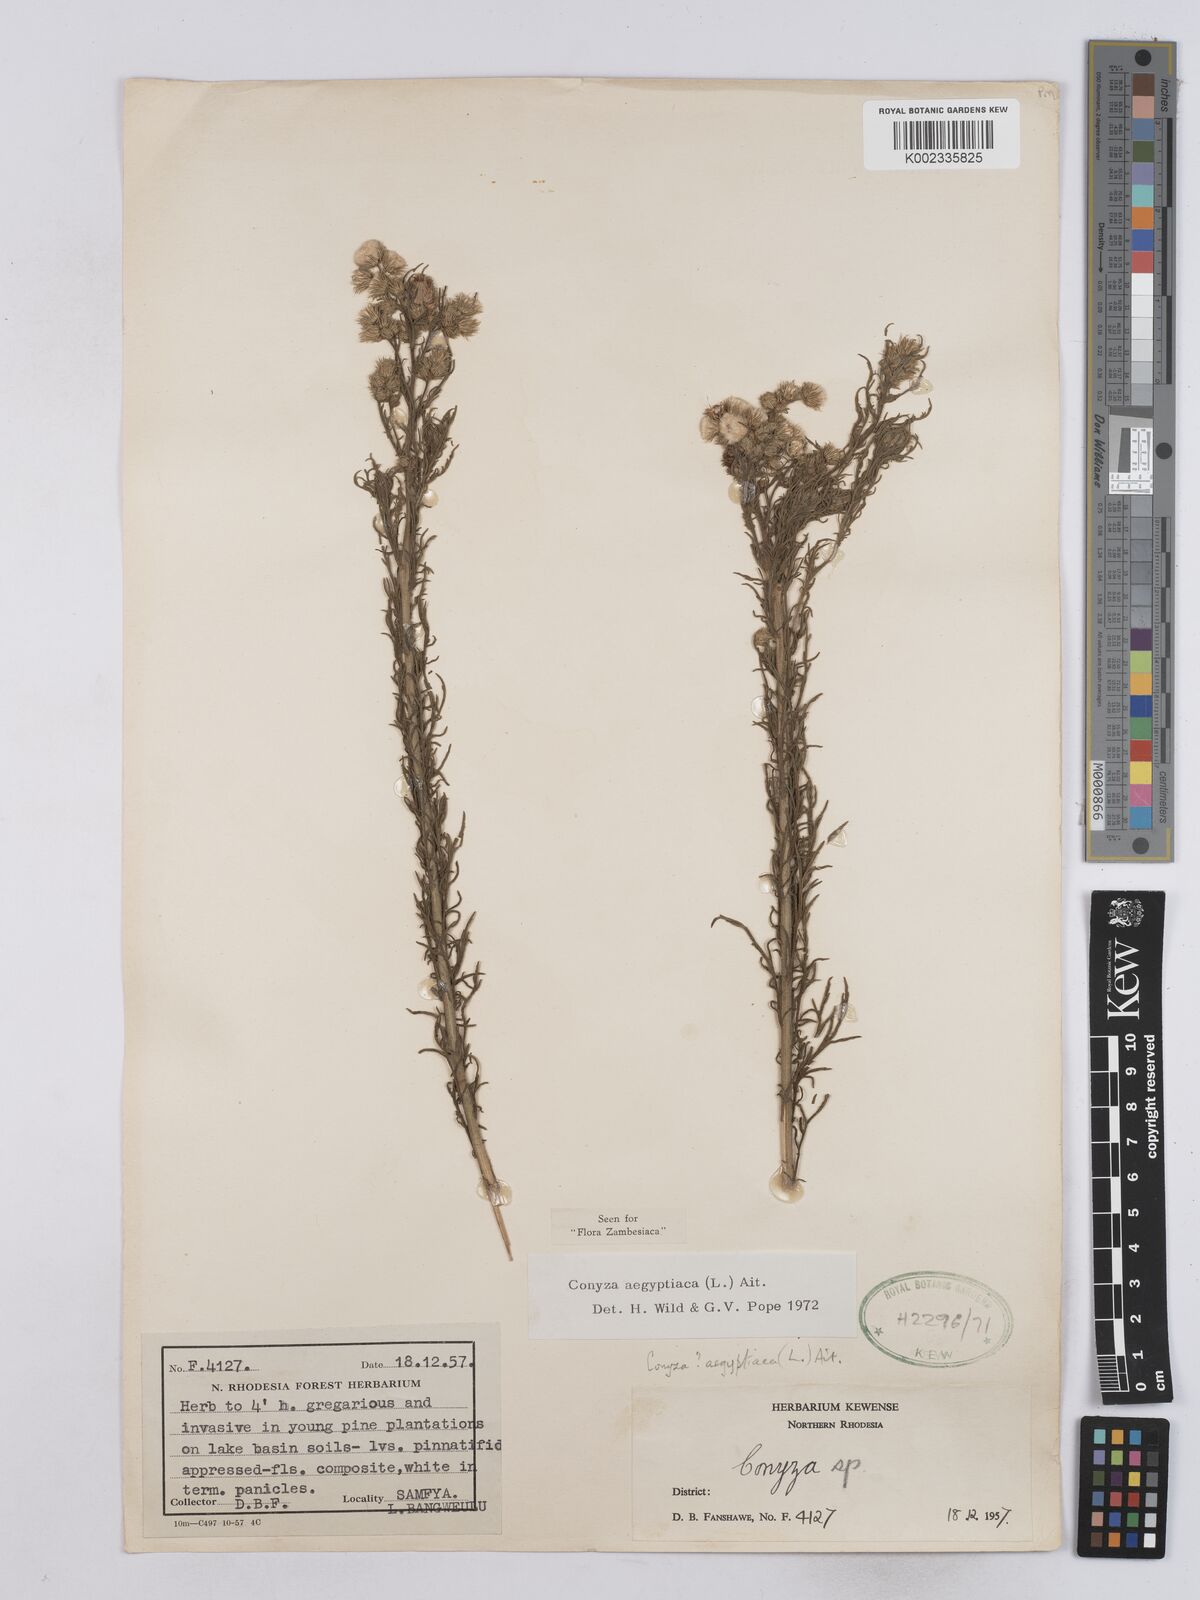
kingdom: Plantae
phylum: Tracheophyta
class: Magnoliopsida
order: Asterales
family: Asteraceae
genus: Nidorella
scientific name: Nidorella aegyptiaca
